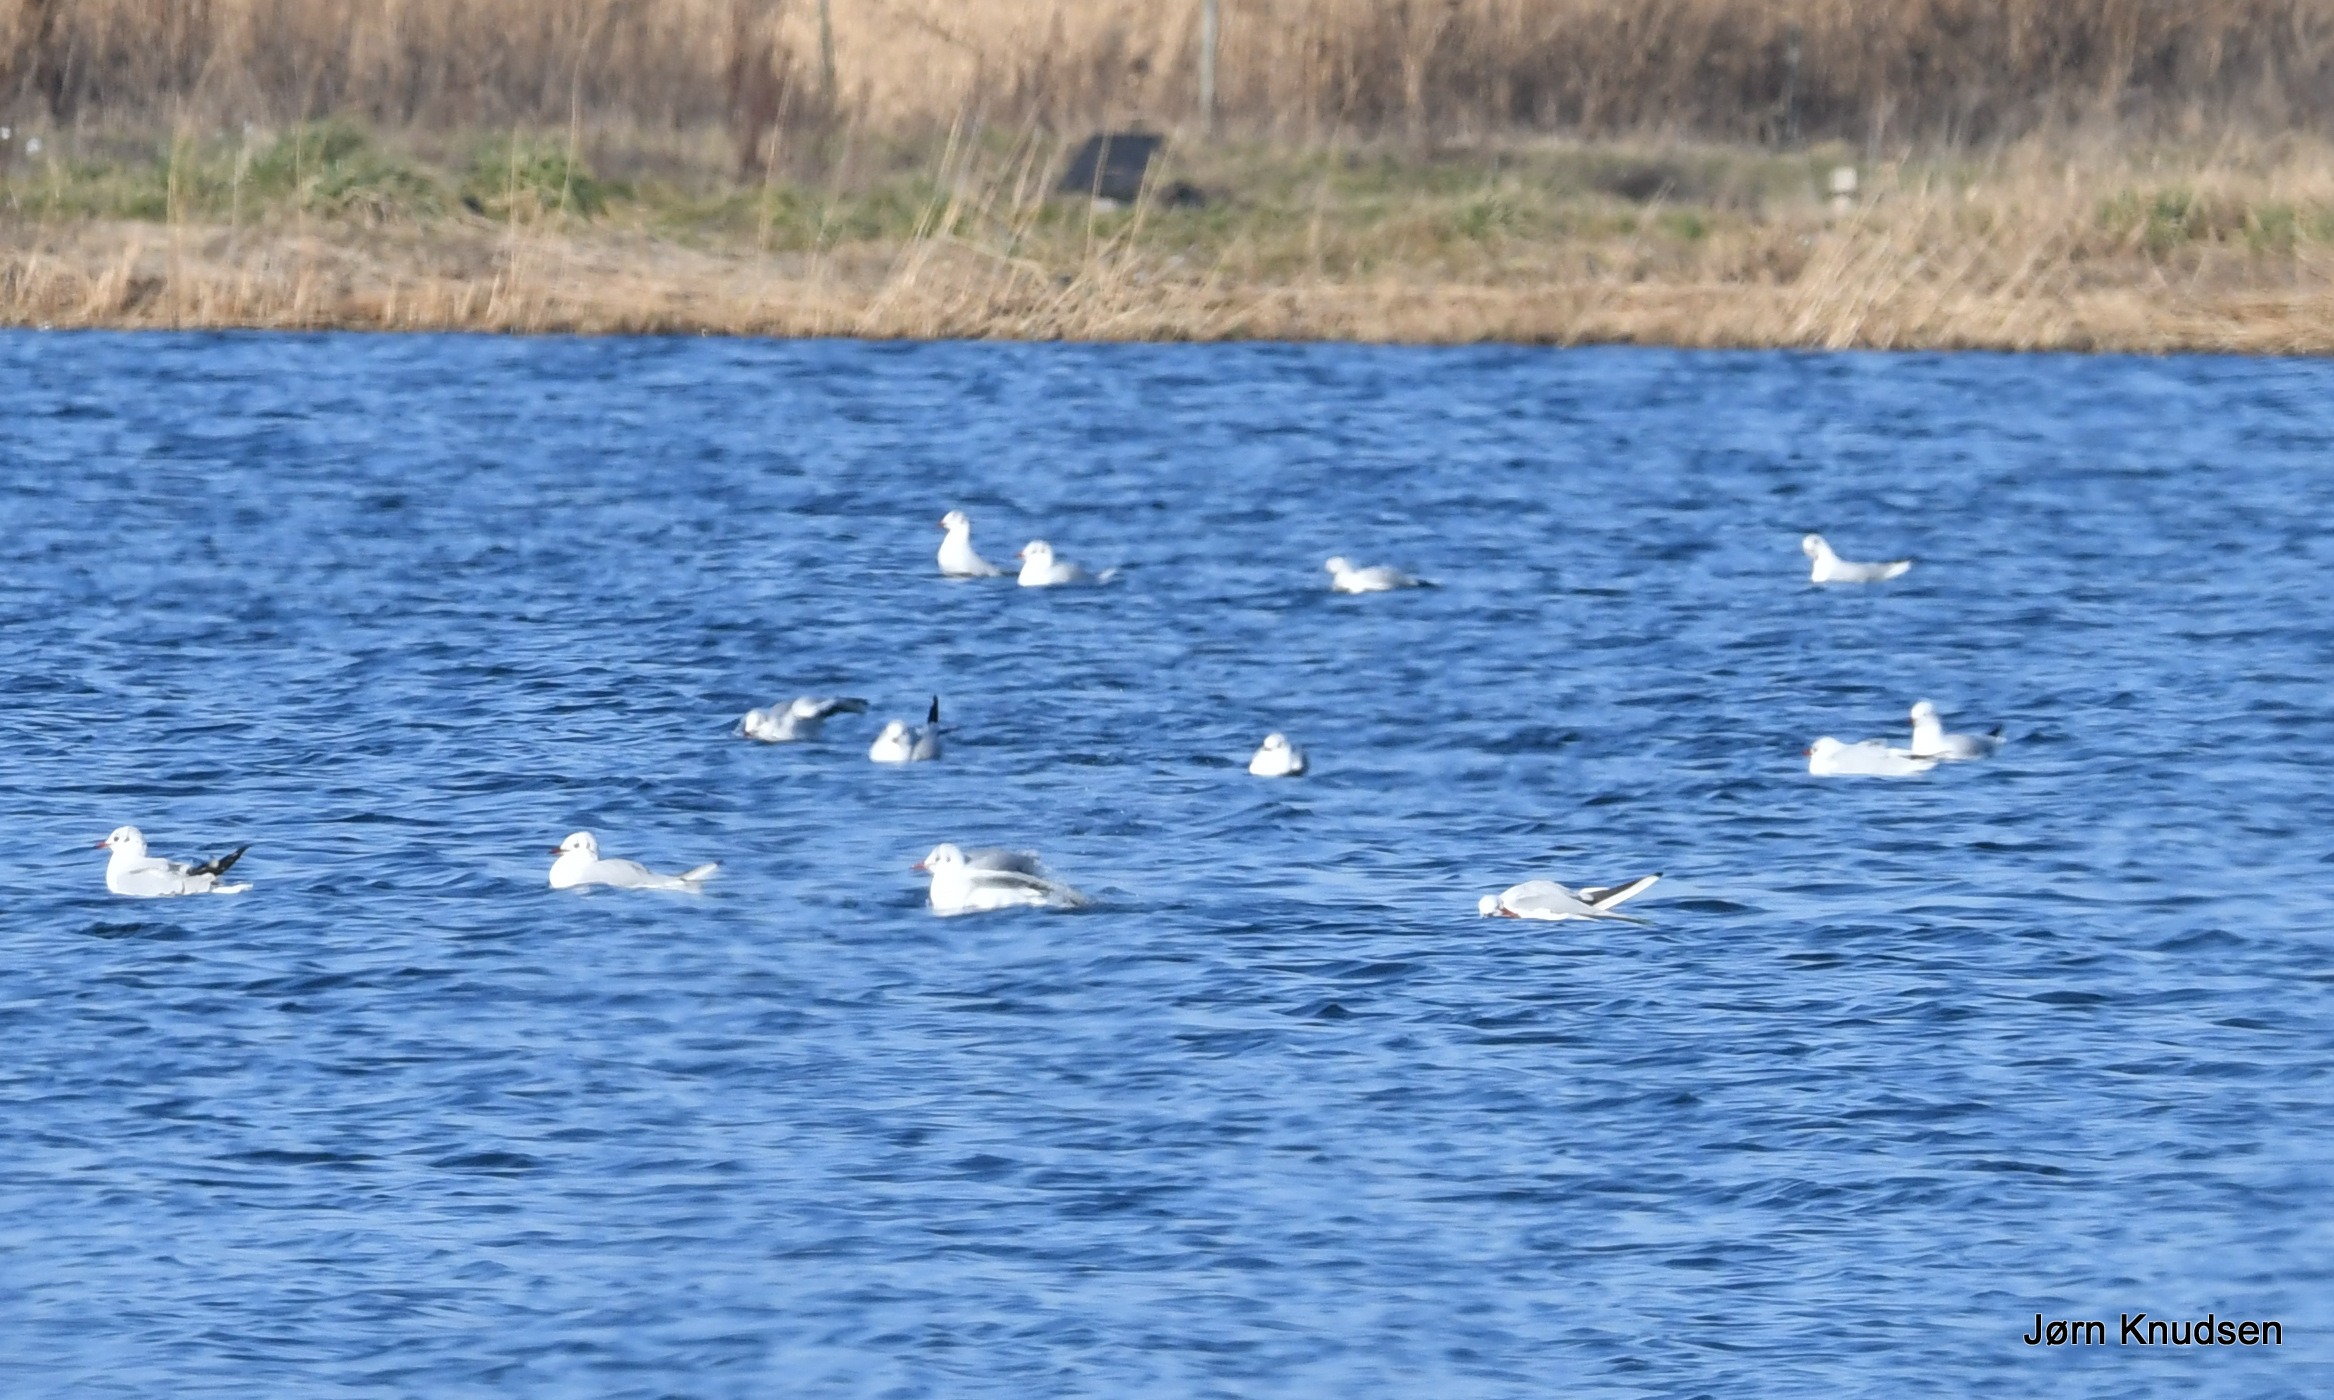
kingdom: Animalia
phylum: Chordata
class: Aves
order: Charadriiformes
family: Laridae
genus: Chroicocephalus
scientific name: Chroicocephalus ridibundus
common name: Hættemåge
